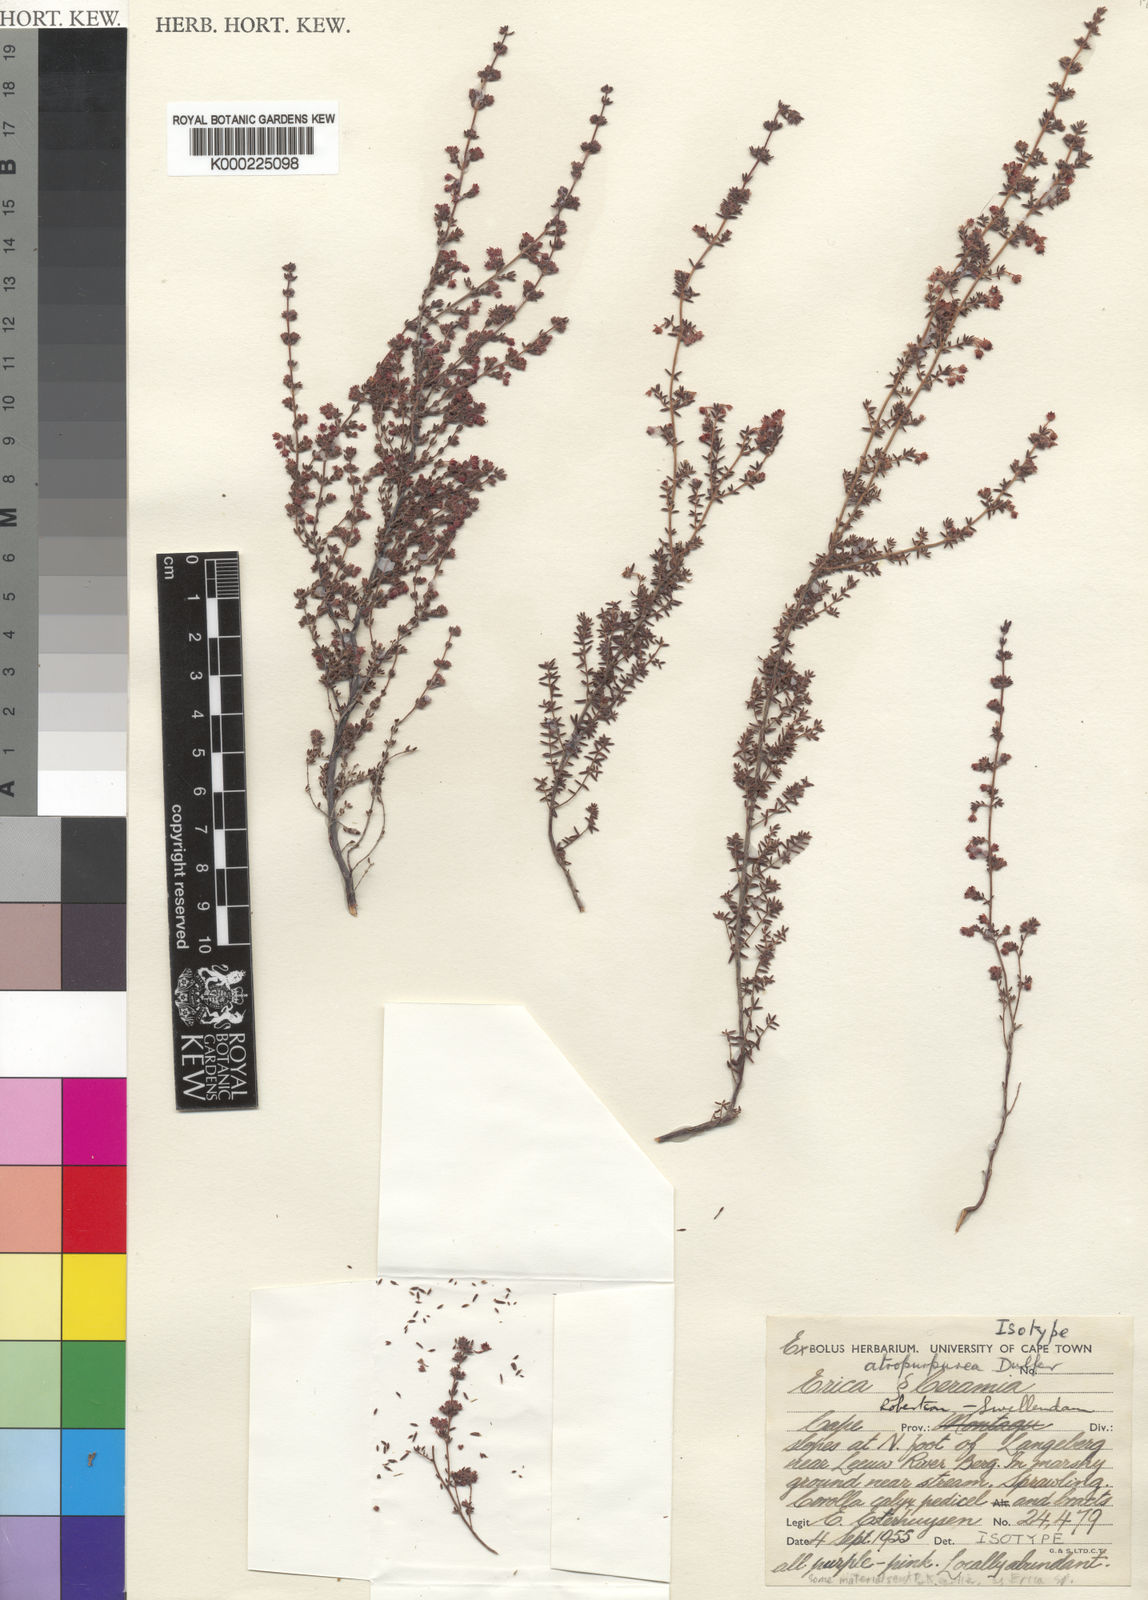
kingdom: Plantae
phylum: Tracheophyta
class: Magnoliopsida
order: Ericales
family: Ericaceae
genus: Erica
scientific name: Erica
